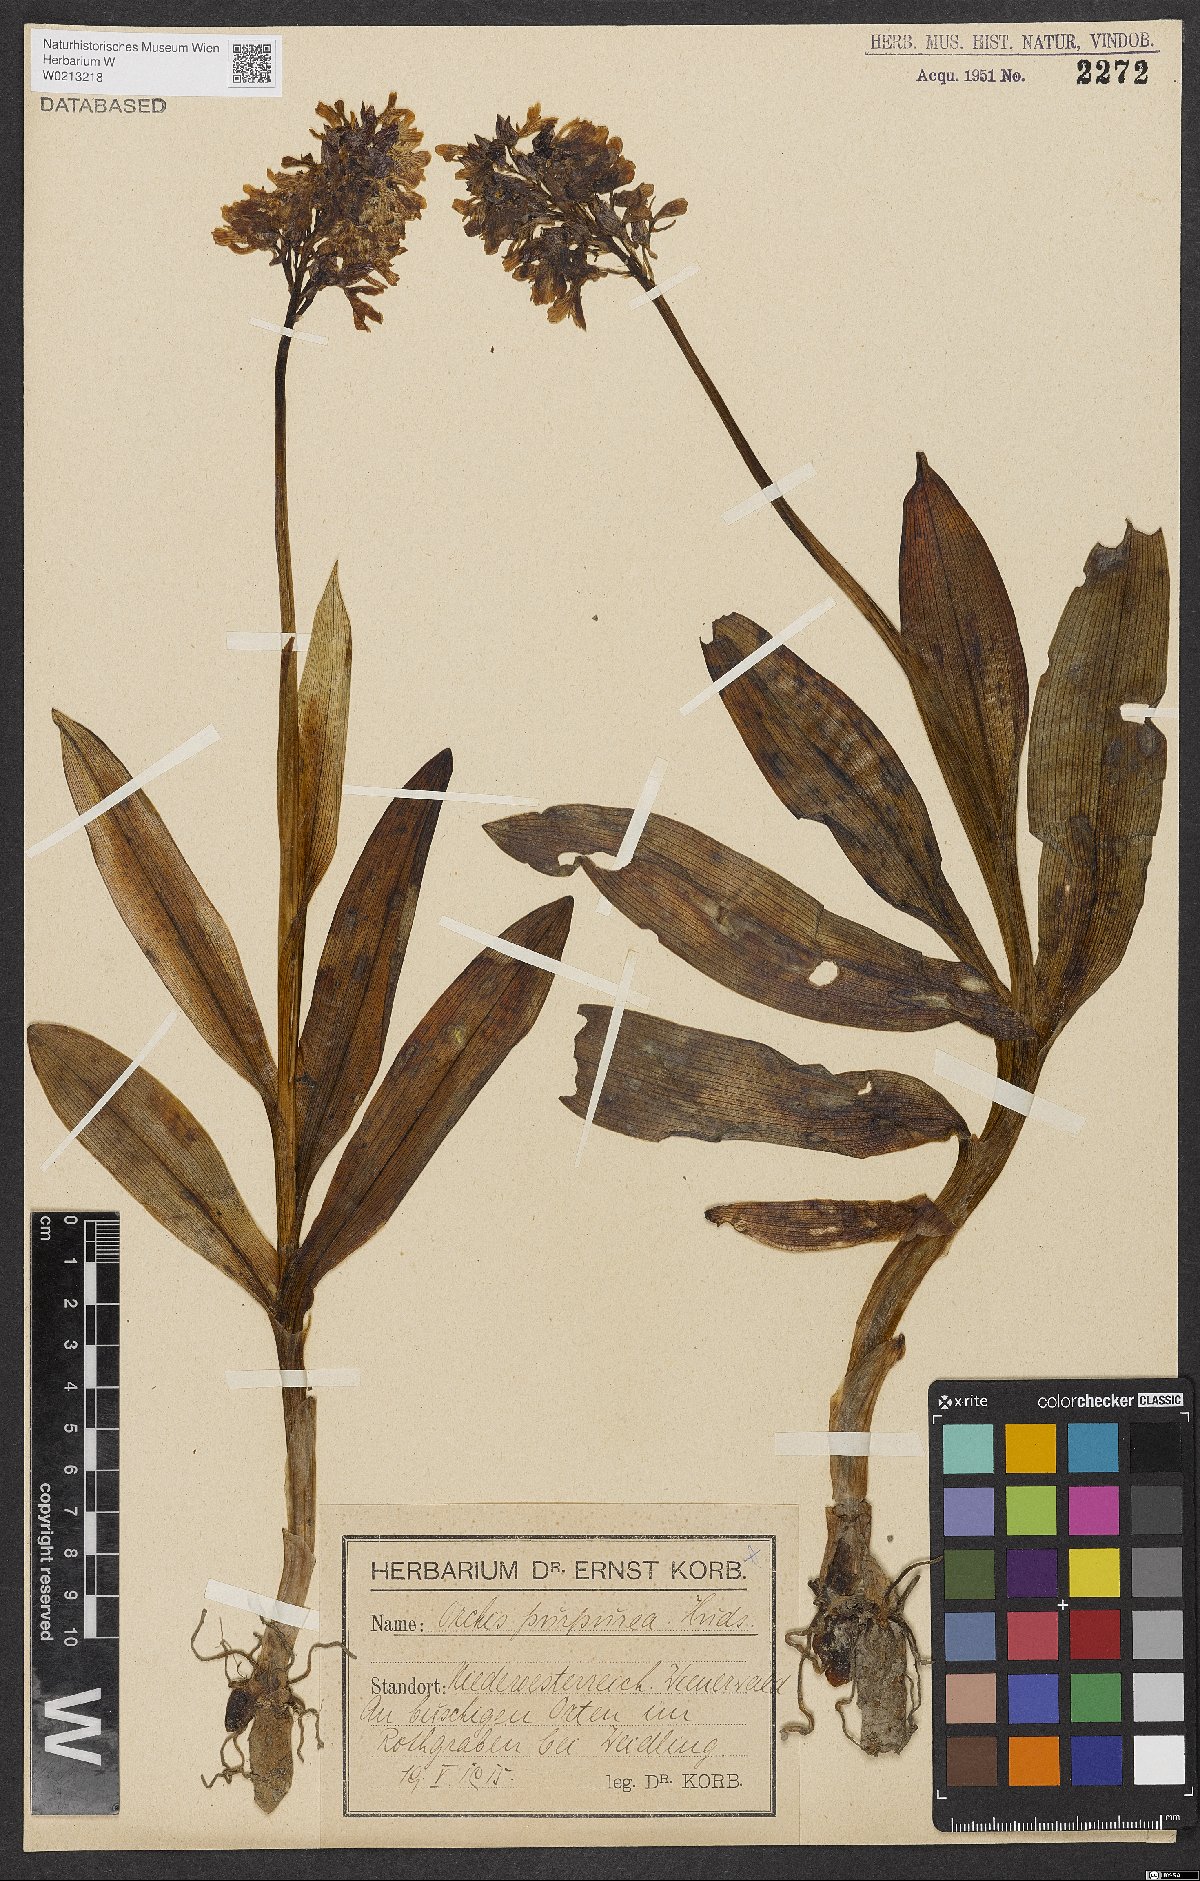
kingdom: Plantae
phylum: Tracheophyta
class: Liliopsida
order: Asparagales
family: Orchidaceae
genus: Orchis
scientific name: Orchis purpurea
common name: Lady orchid
